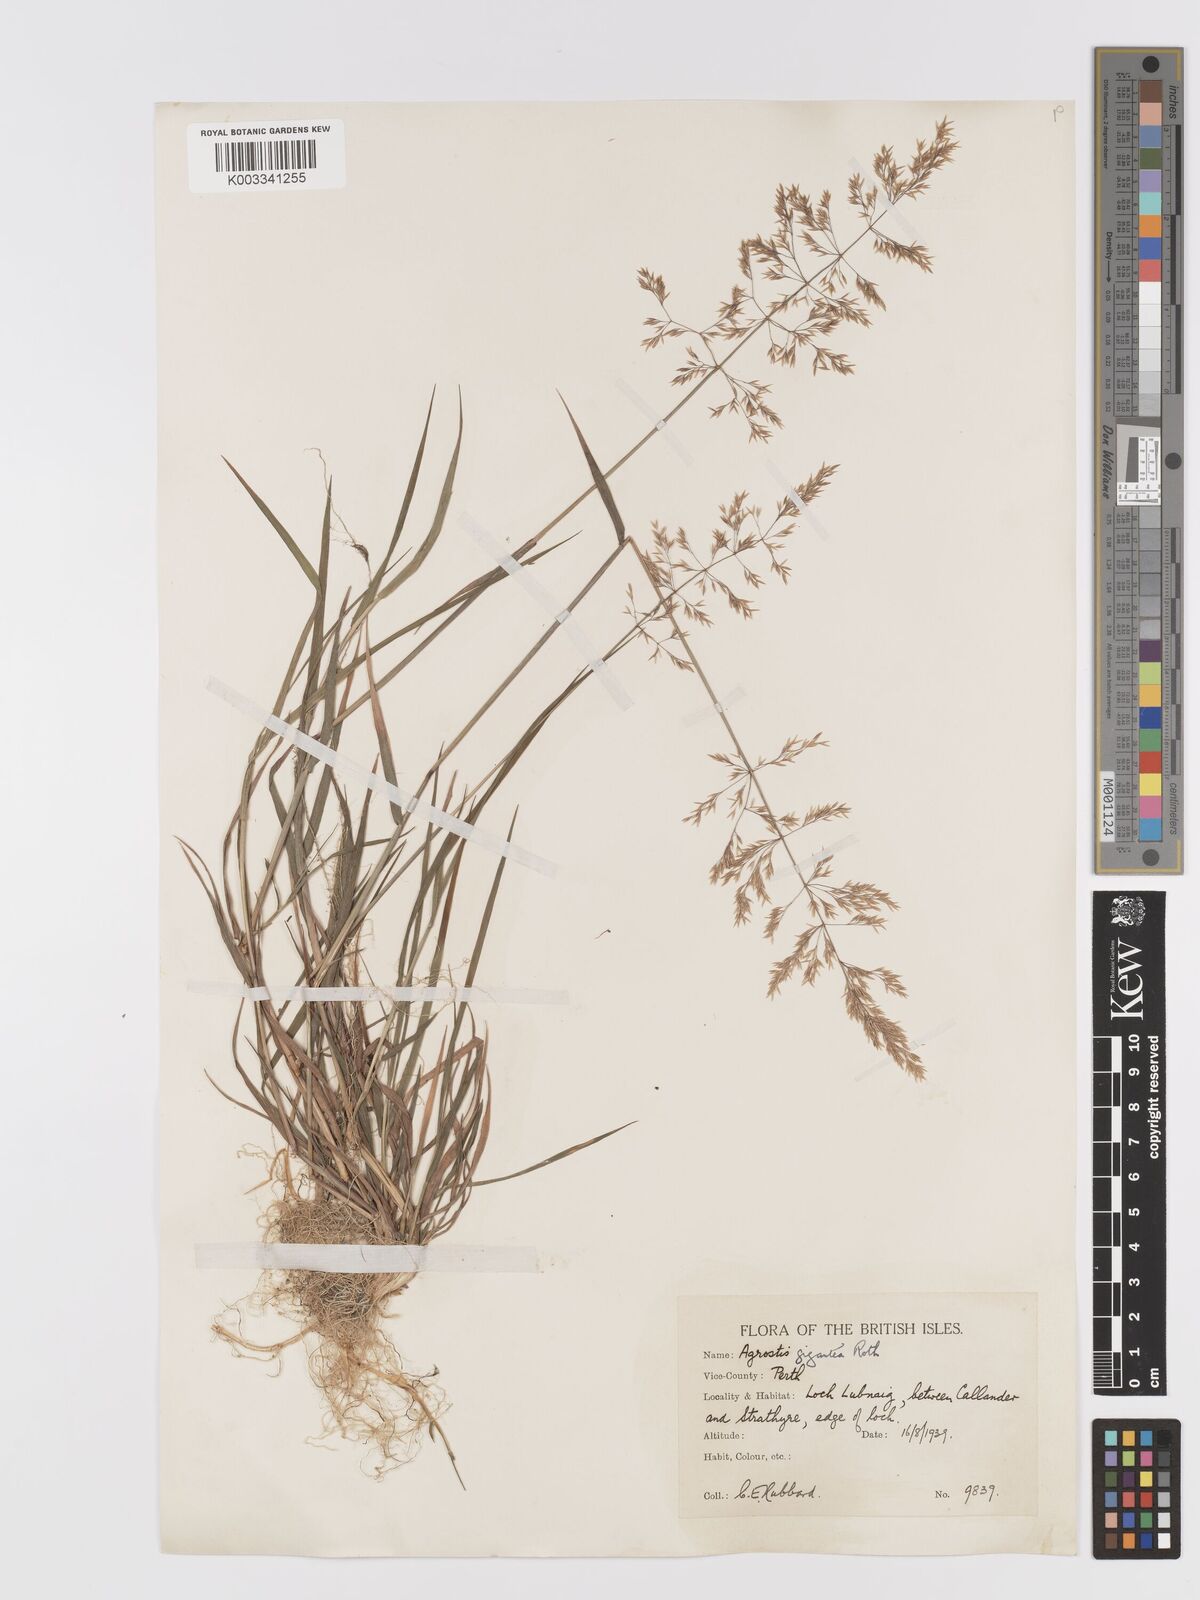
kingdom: Plantae
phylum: Tracheophyta
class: Liliopsida
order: Poales
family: Poaceae
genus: Agrostis
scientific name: Agrostis gigantea
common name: Black bent
